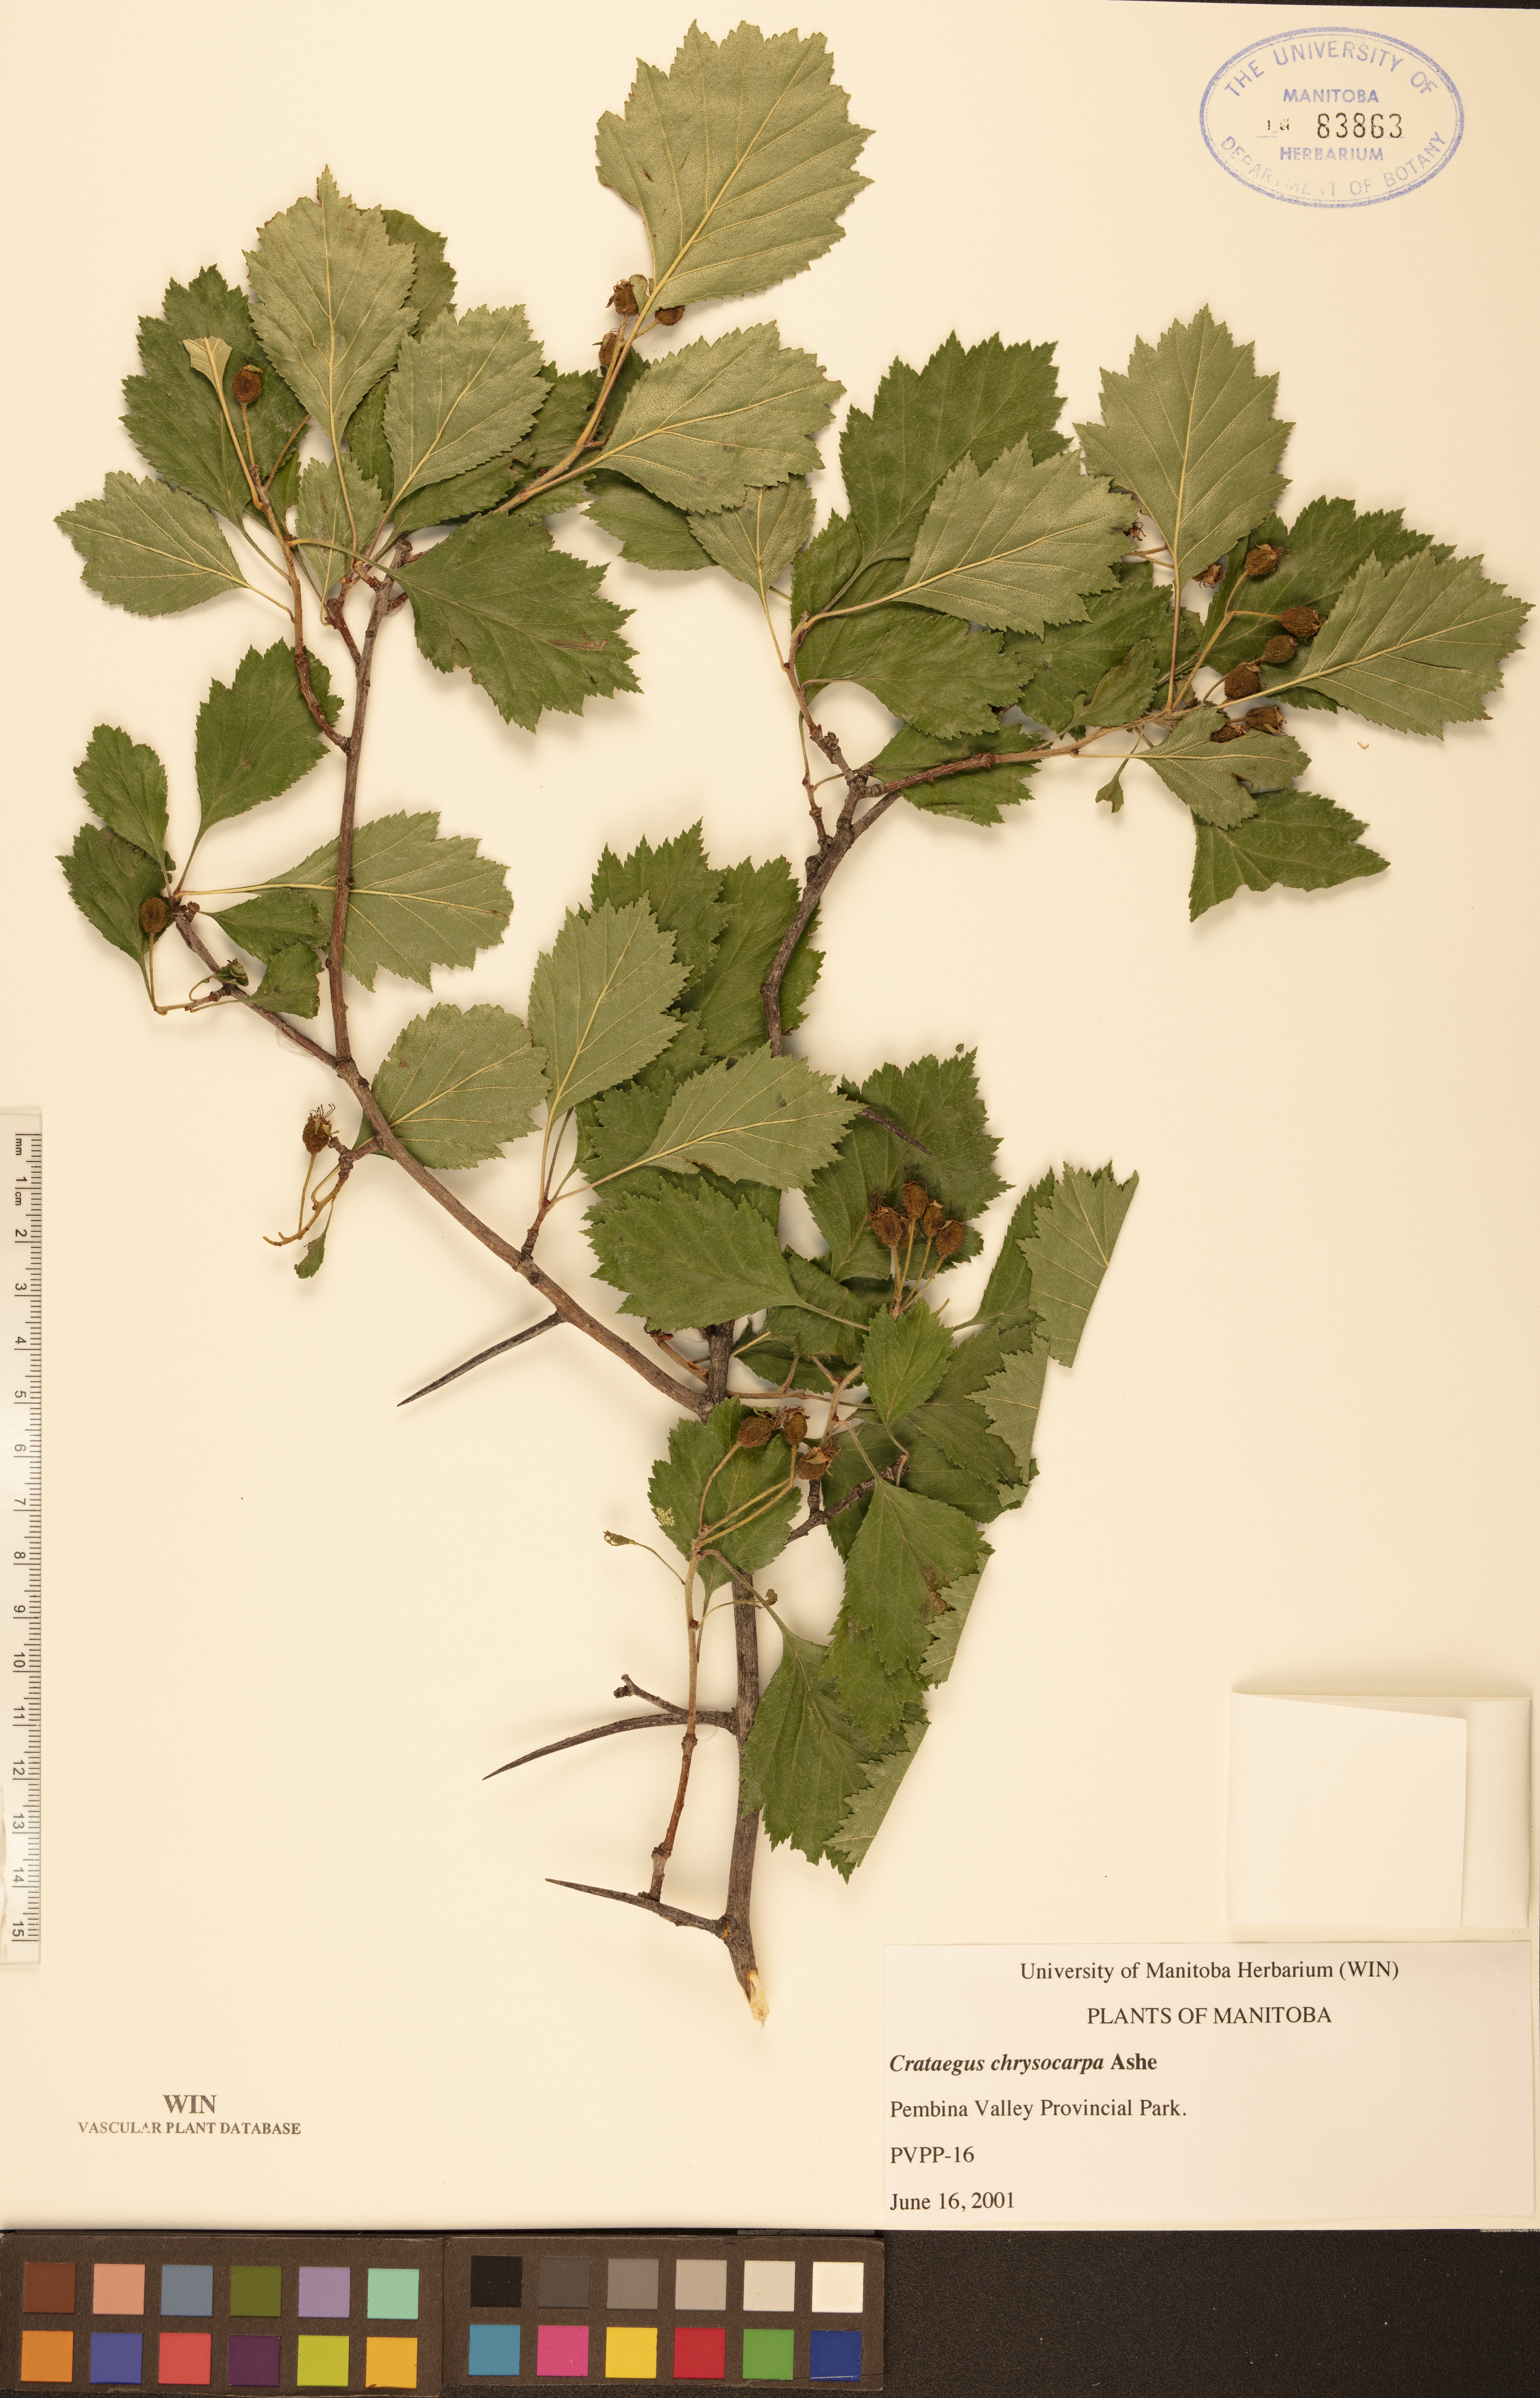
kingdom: Plantae
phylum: Tracheophyta
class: Magnoliopsida
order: Rosales
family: Rosaceae
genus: Crataegus
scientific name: Crataegus chrysocarpa
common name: Fire-berry hawthorn
